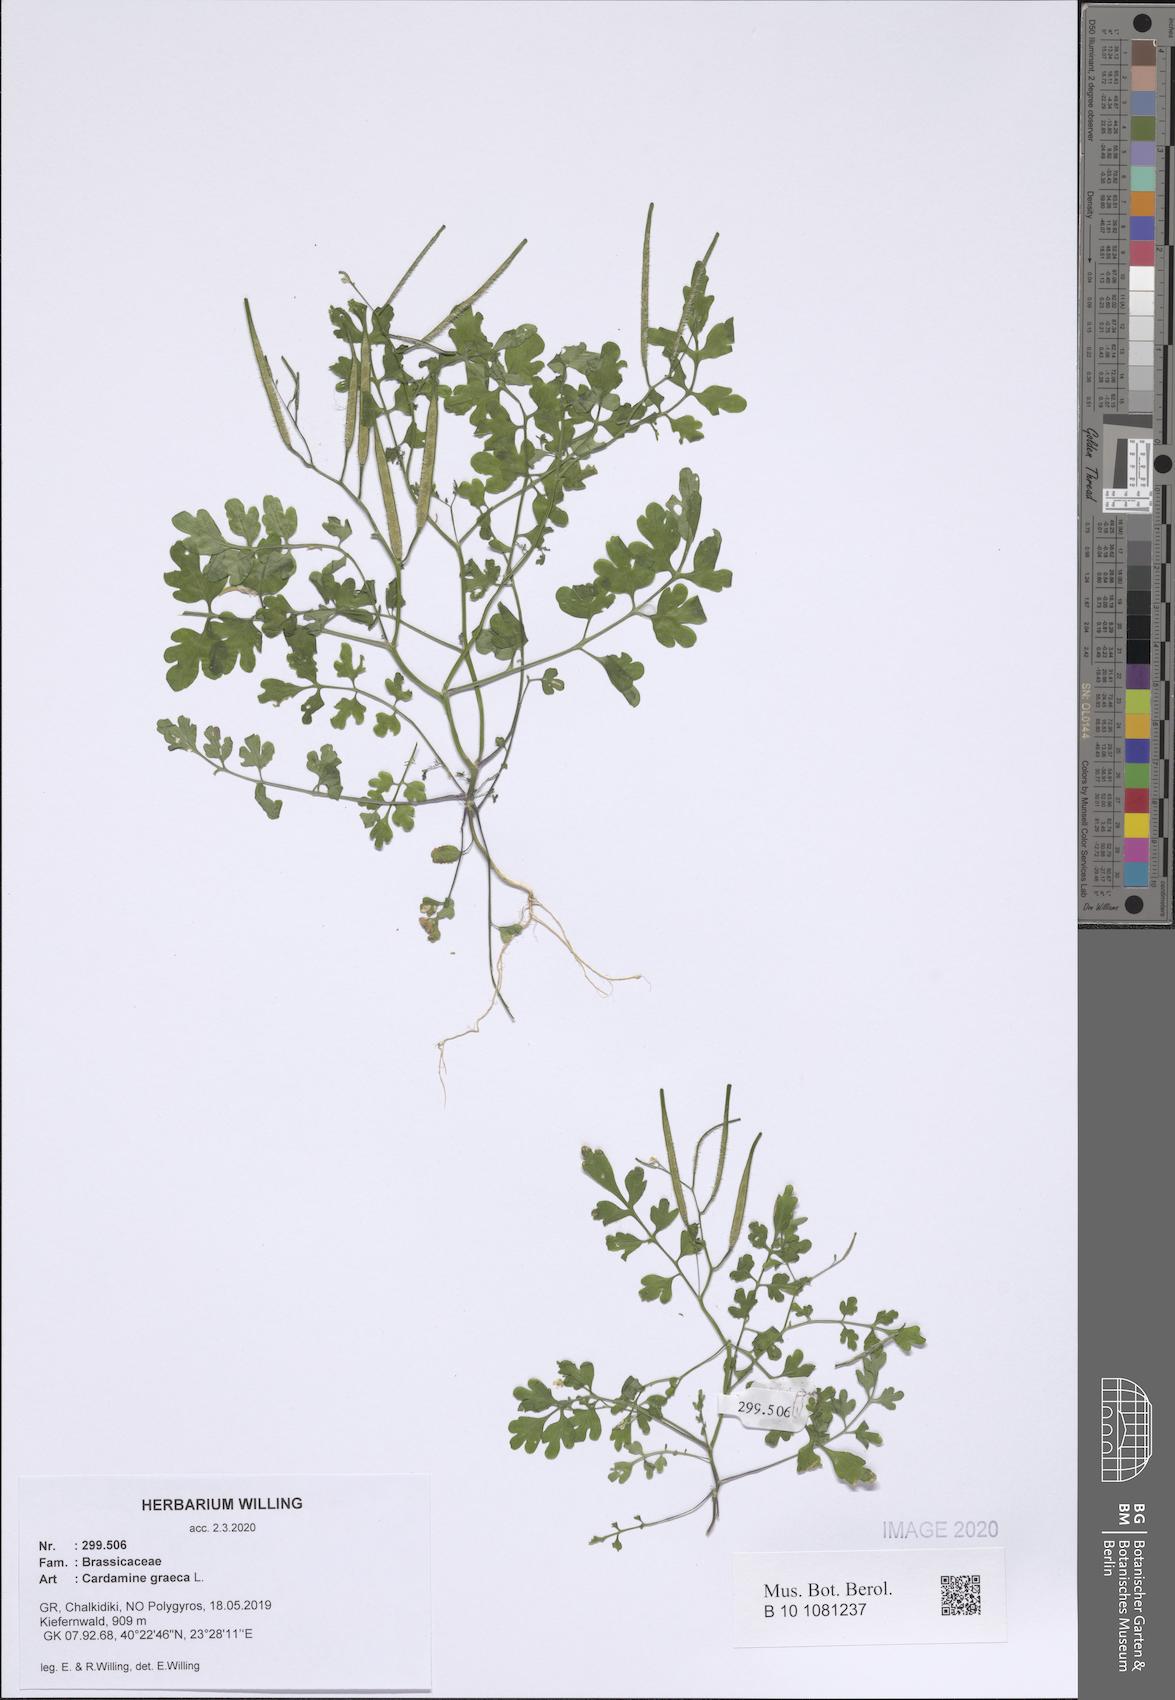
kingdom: Plantae
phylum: Tracheophyta
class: Magnoliopsida
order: Brassicales
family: Brassicaceae
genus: Cardamine
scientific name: Cardamine graeca
